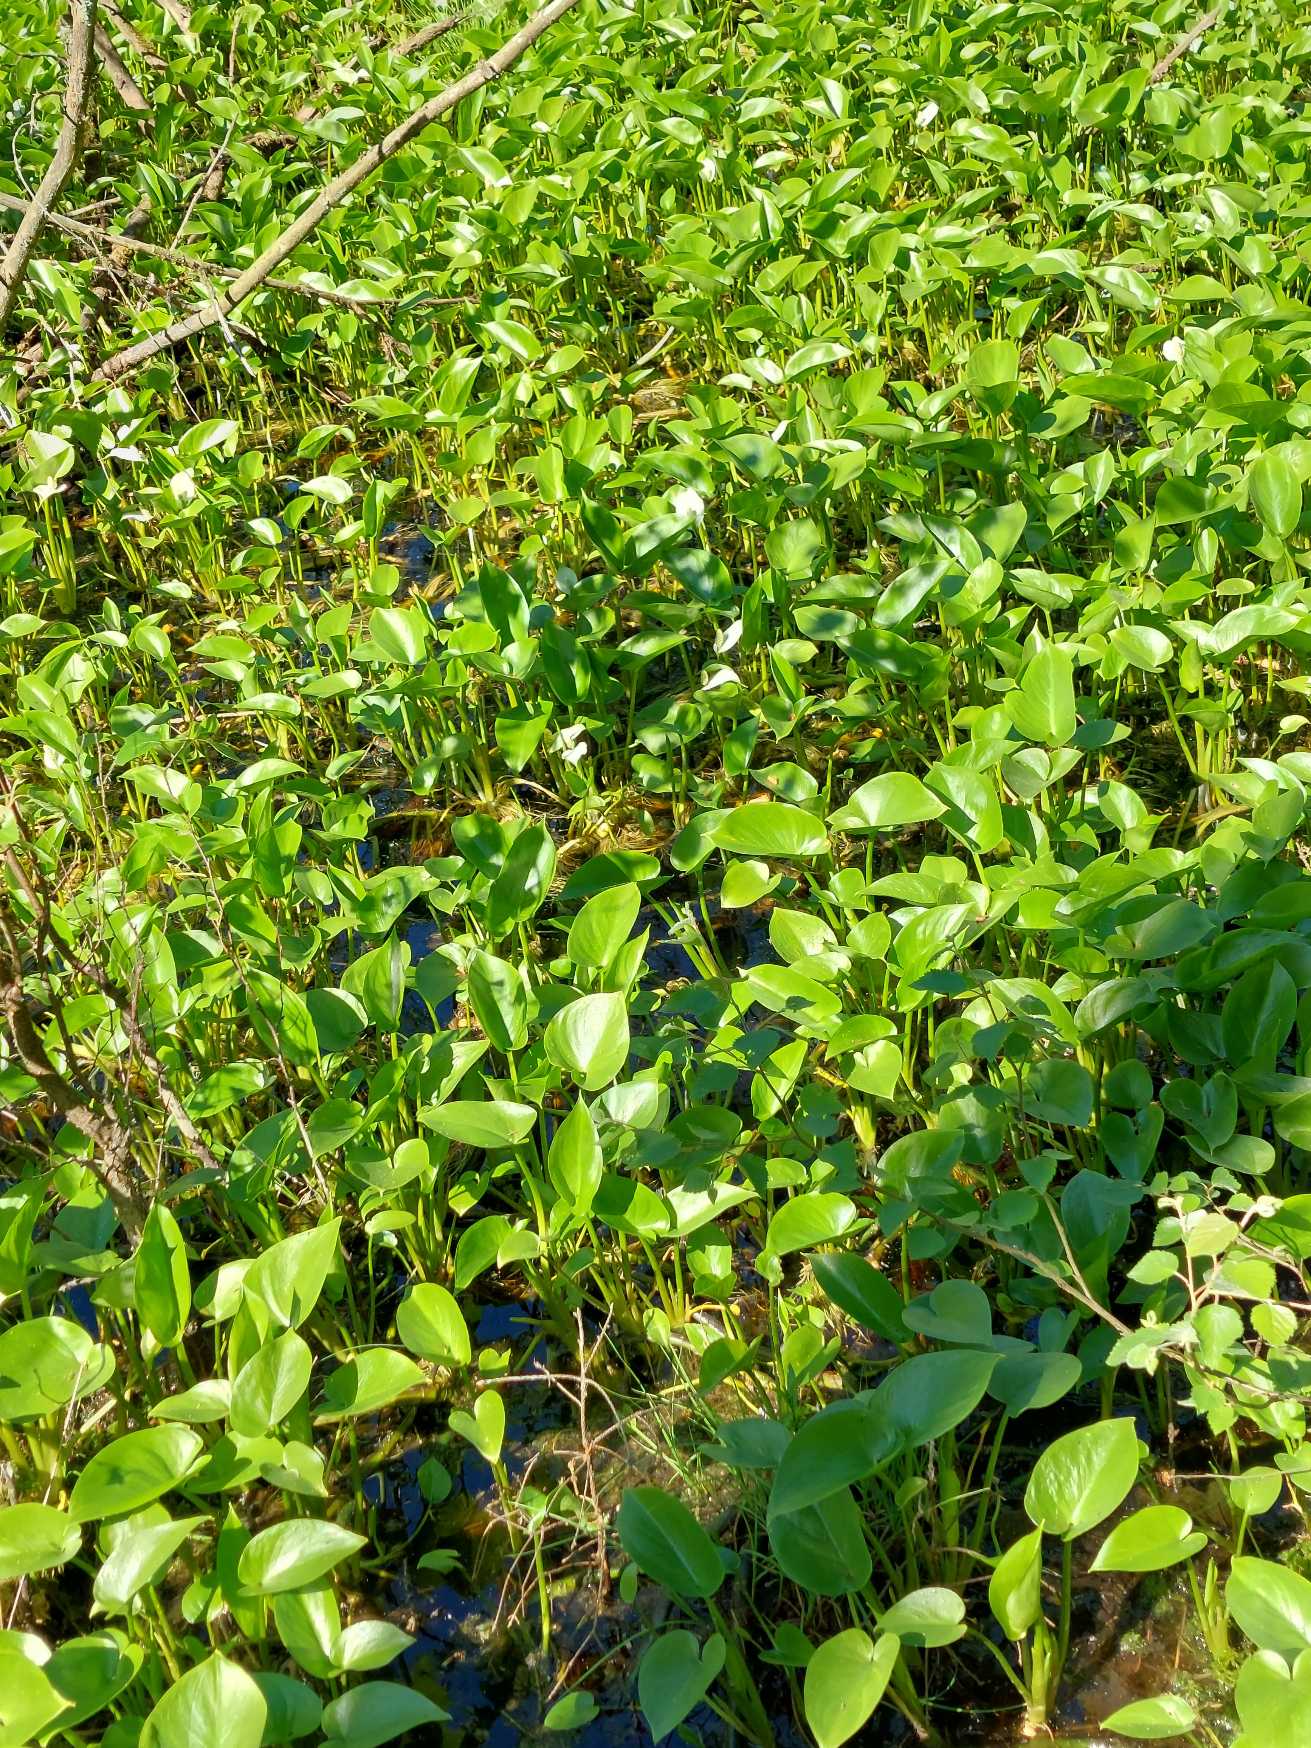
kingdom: Plantae
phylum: Tracheophyta
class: Liliopsida
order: Alismatales
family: Araceae
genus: Calla
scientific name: Calla palustris
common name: Kærmysse
